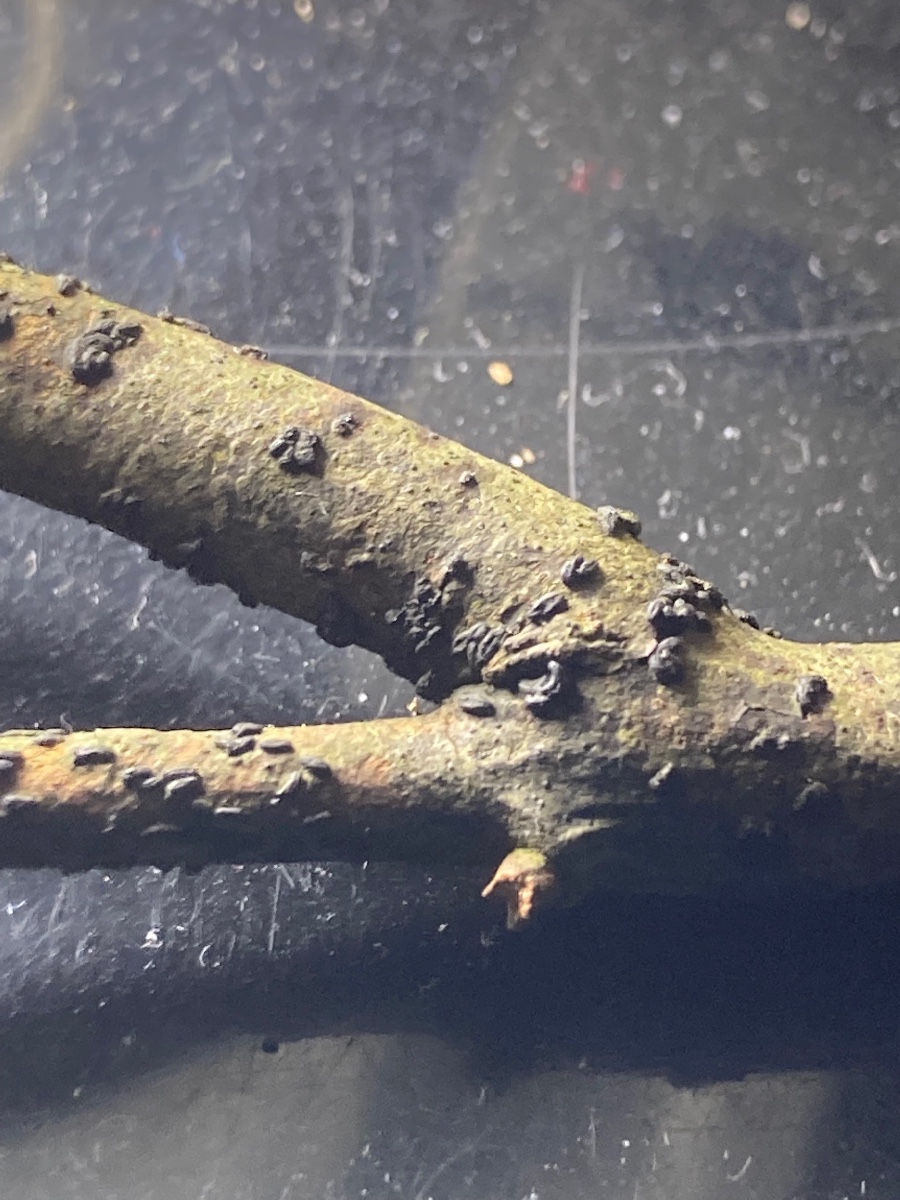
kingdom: Fungi
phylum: Ascomycota
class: Dothideomycetes
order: Hysteriales
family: Hysteriaceae
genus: Hysterobrevium
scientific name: Hysterobrevium smilacis
